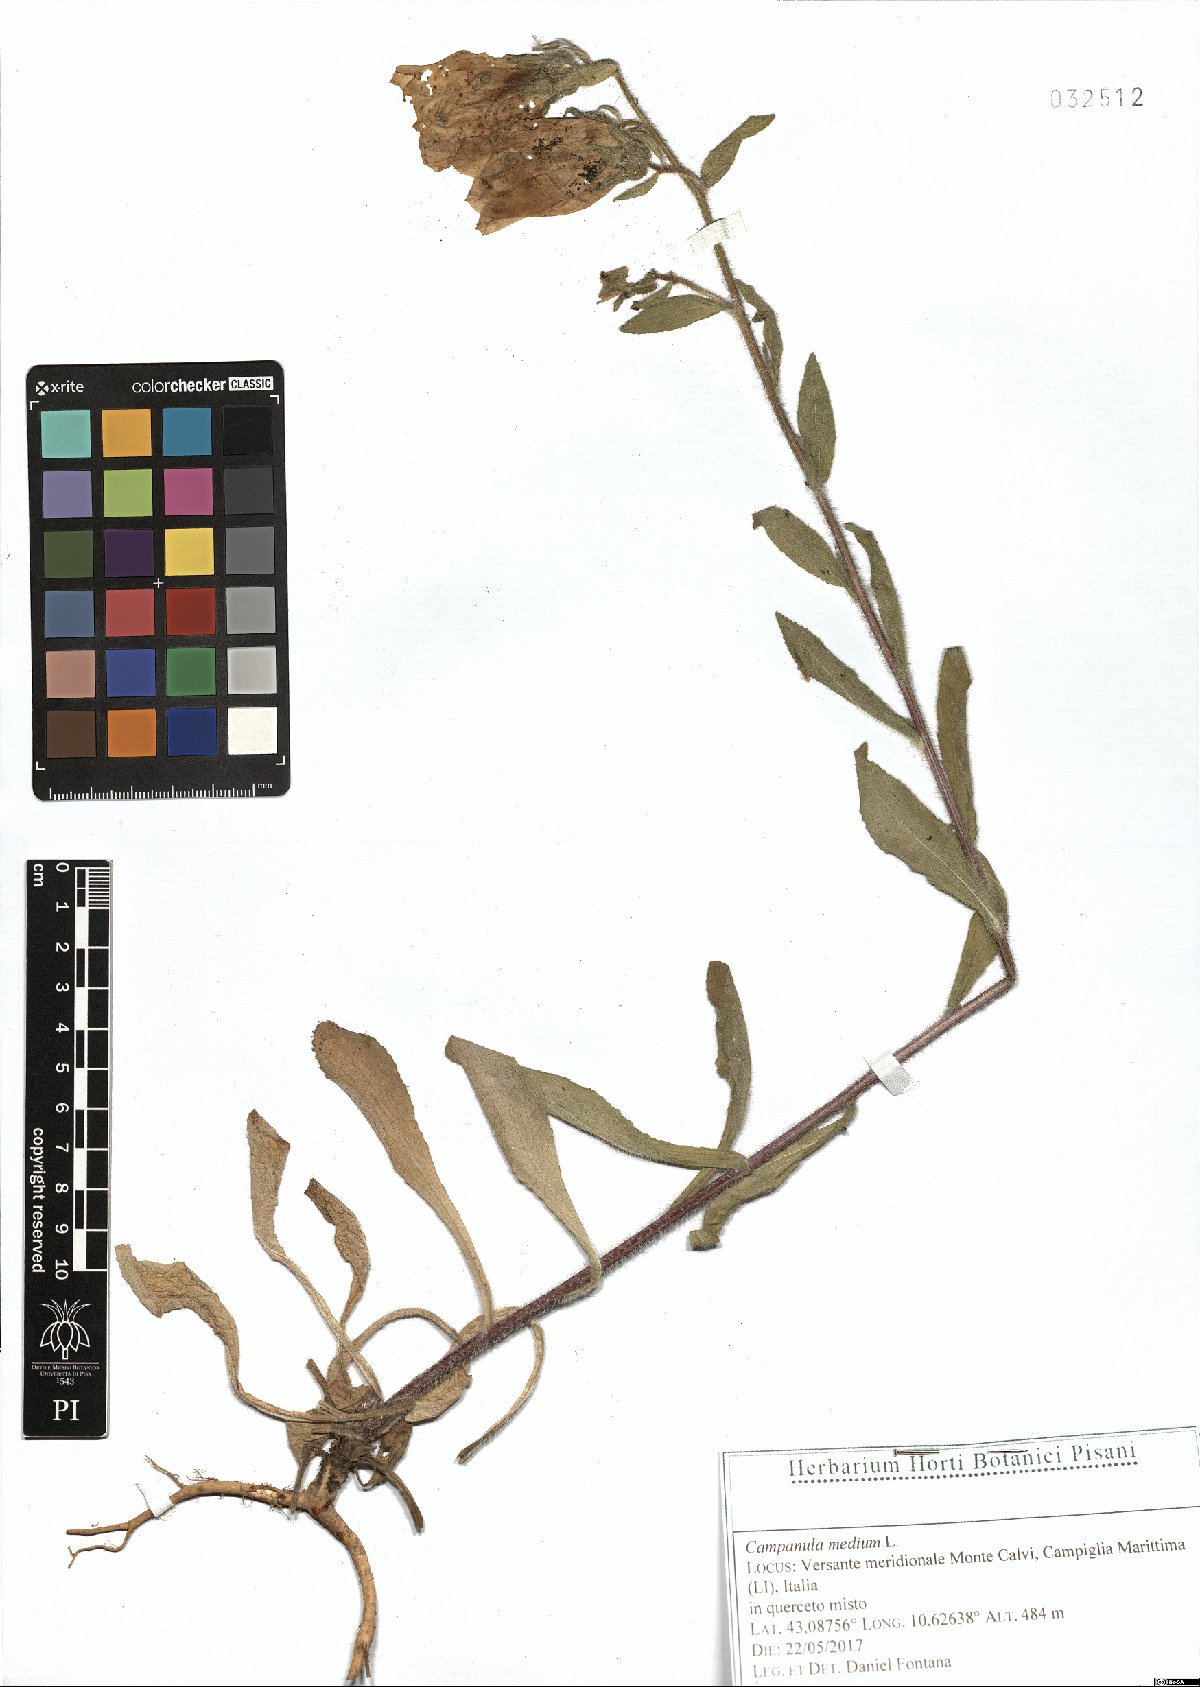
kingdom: Plantae
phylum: Tracheophyta
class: Magnoliopsida
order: Asterales
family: Campanulaceae
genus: Campanula
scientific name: Campanula medium
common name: Canterbury bells
